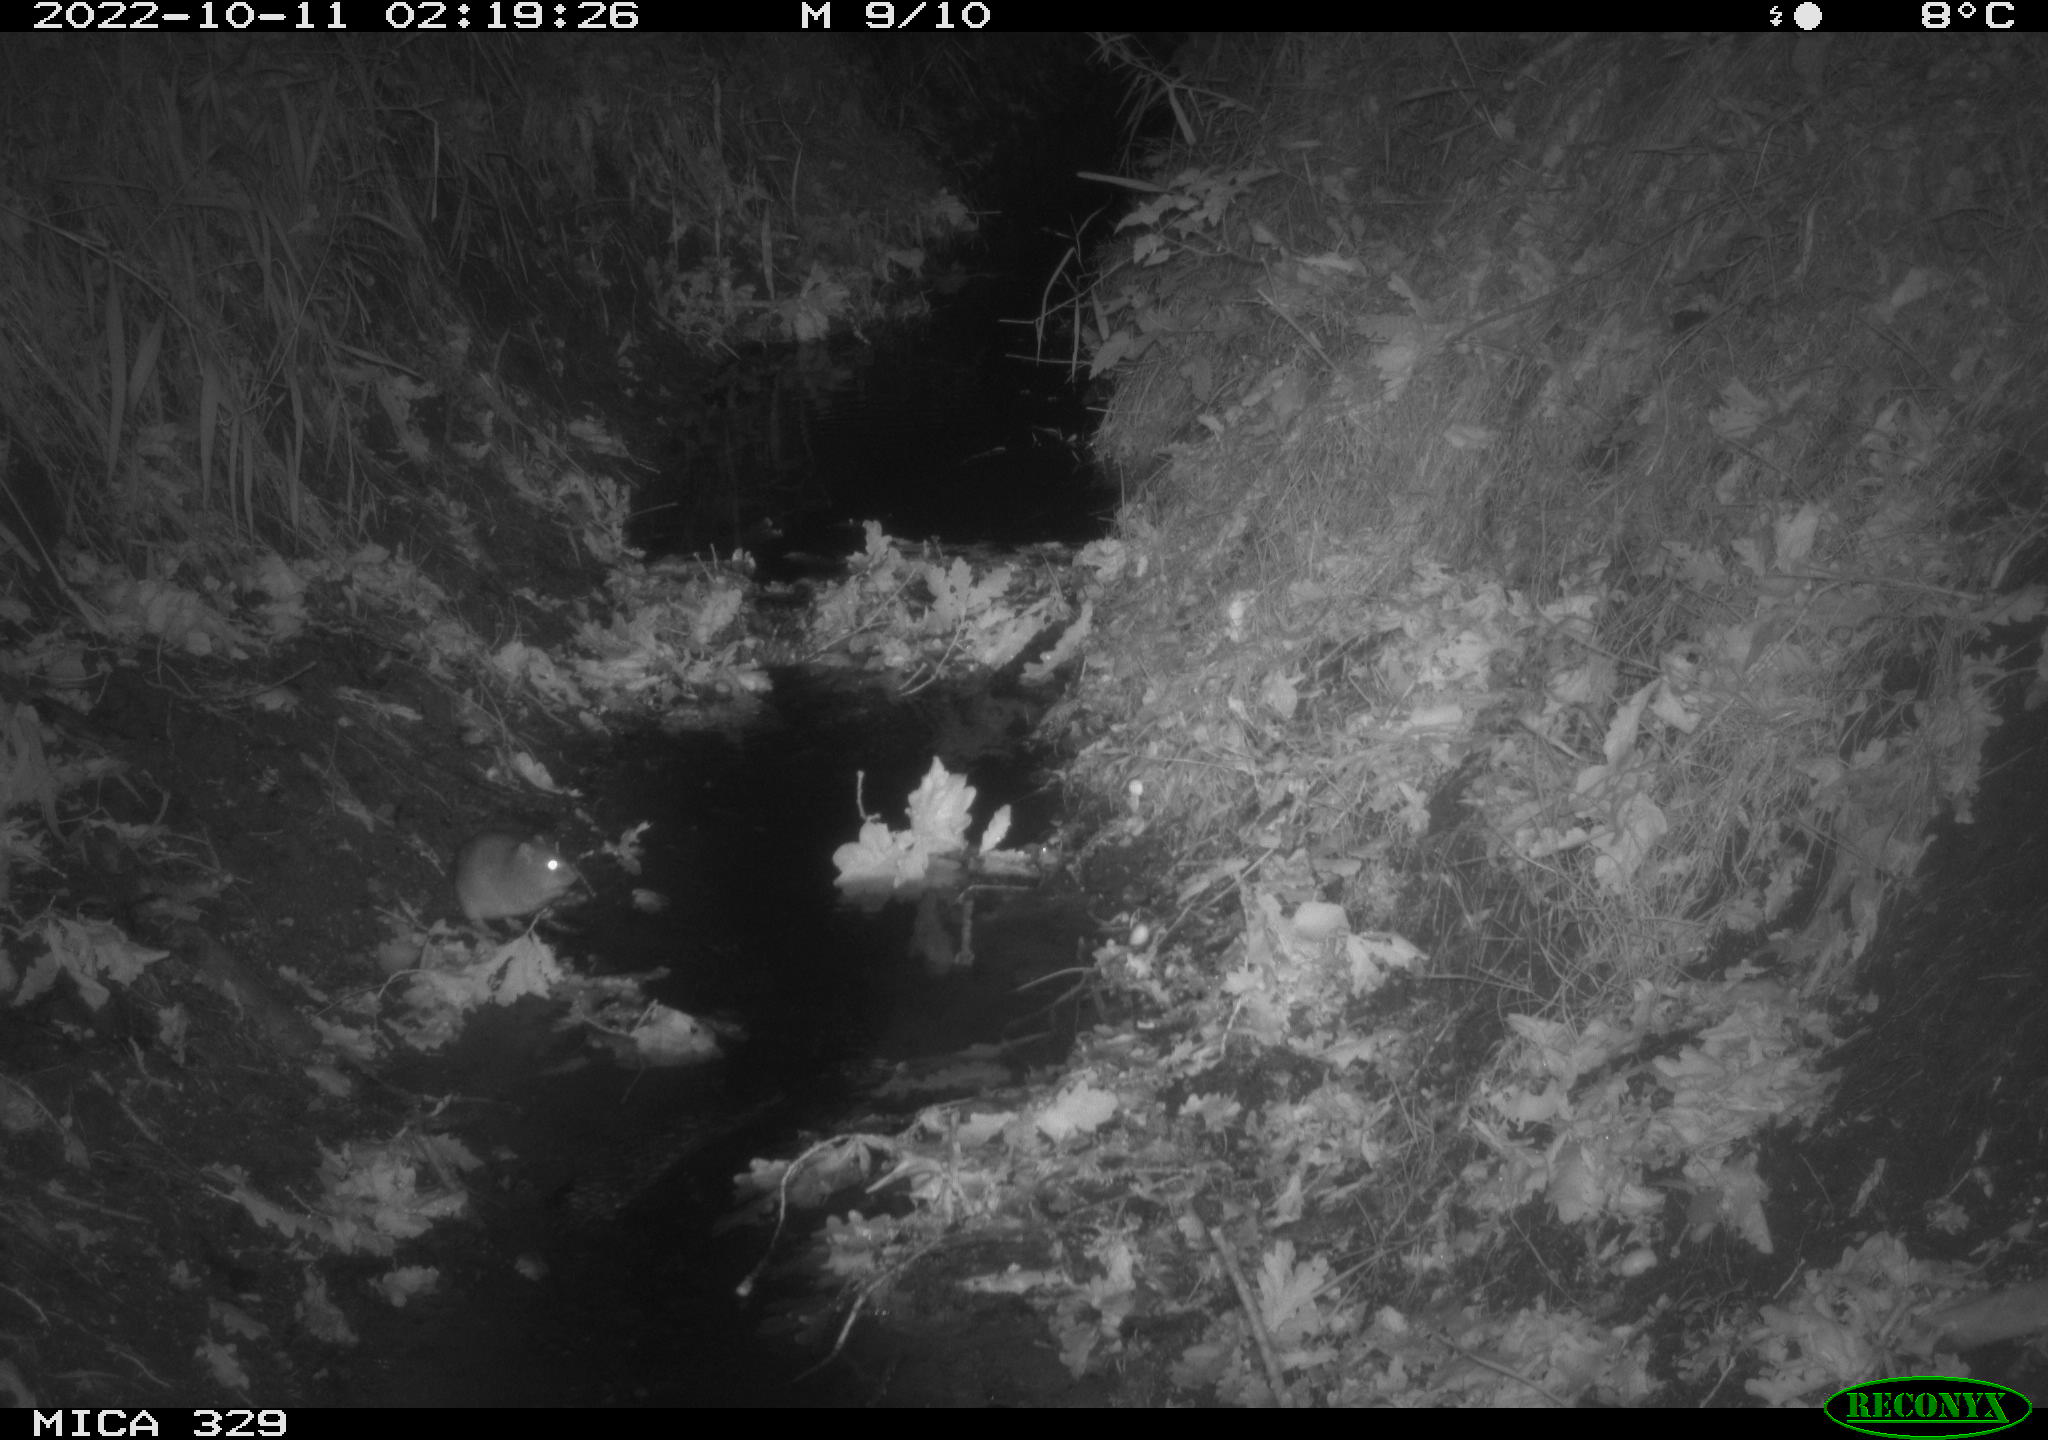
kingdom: Animalia
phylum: Chordata
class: Mammalia
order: Rodentia
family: Muridae
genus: Rattus
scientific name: Rattus norvegicus
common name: Brown rat
